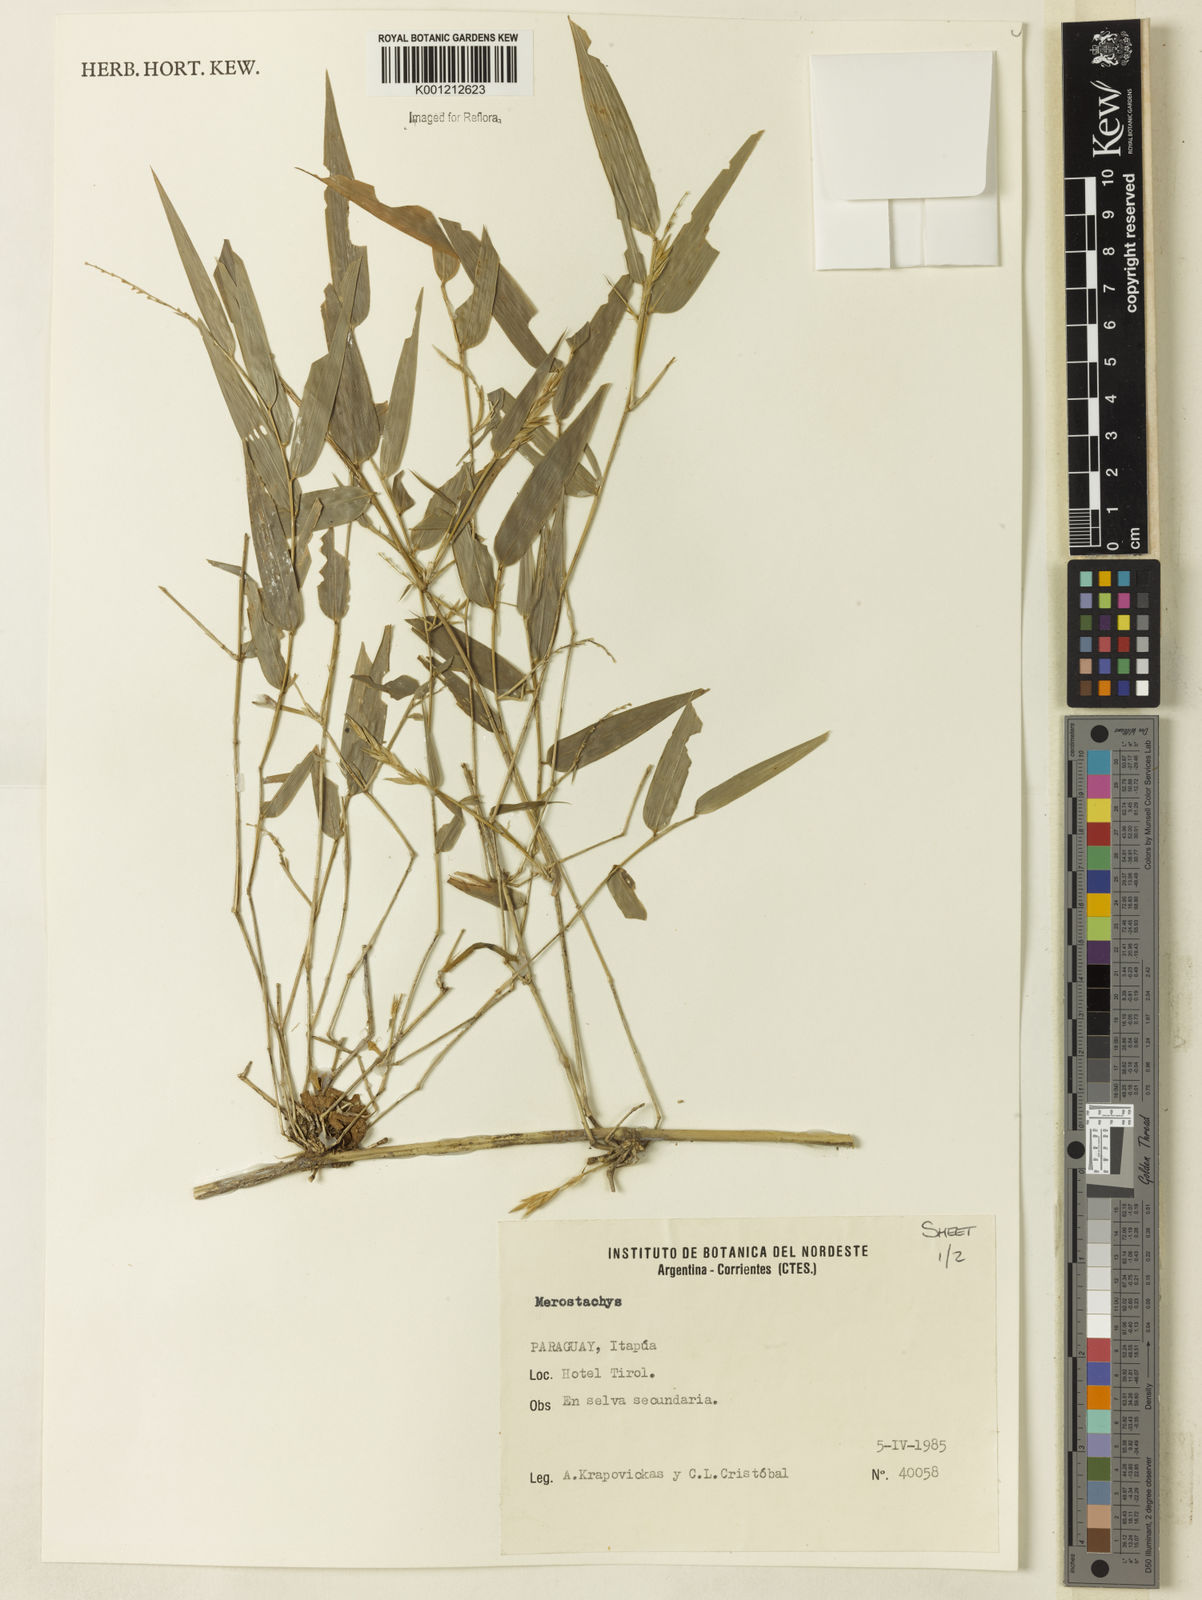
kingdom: Plantae
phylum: Tracheophyta
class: Liliopsida
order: Poales
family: Poaceae
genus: Merostachys
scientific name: Merostachys
